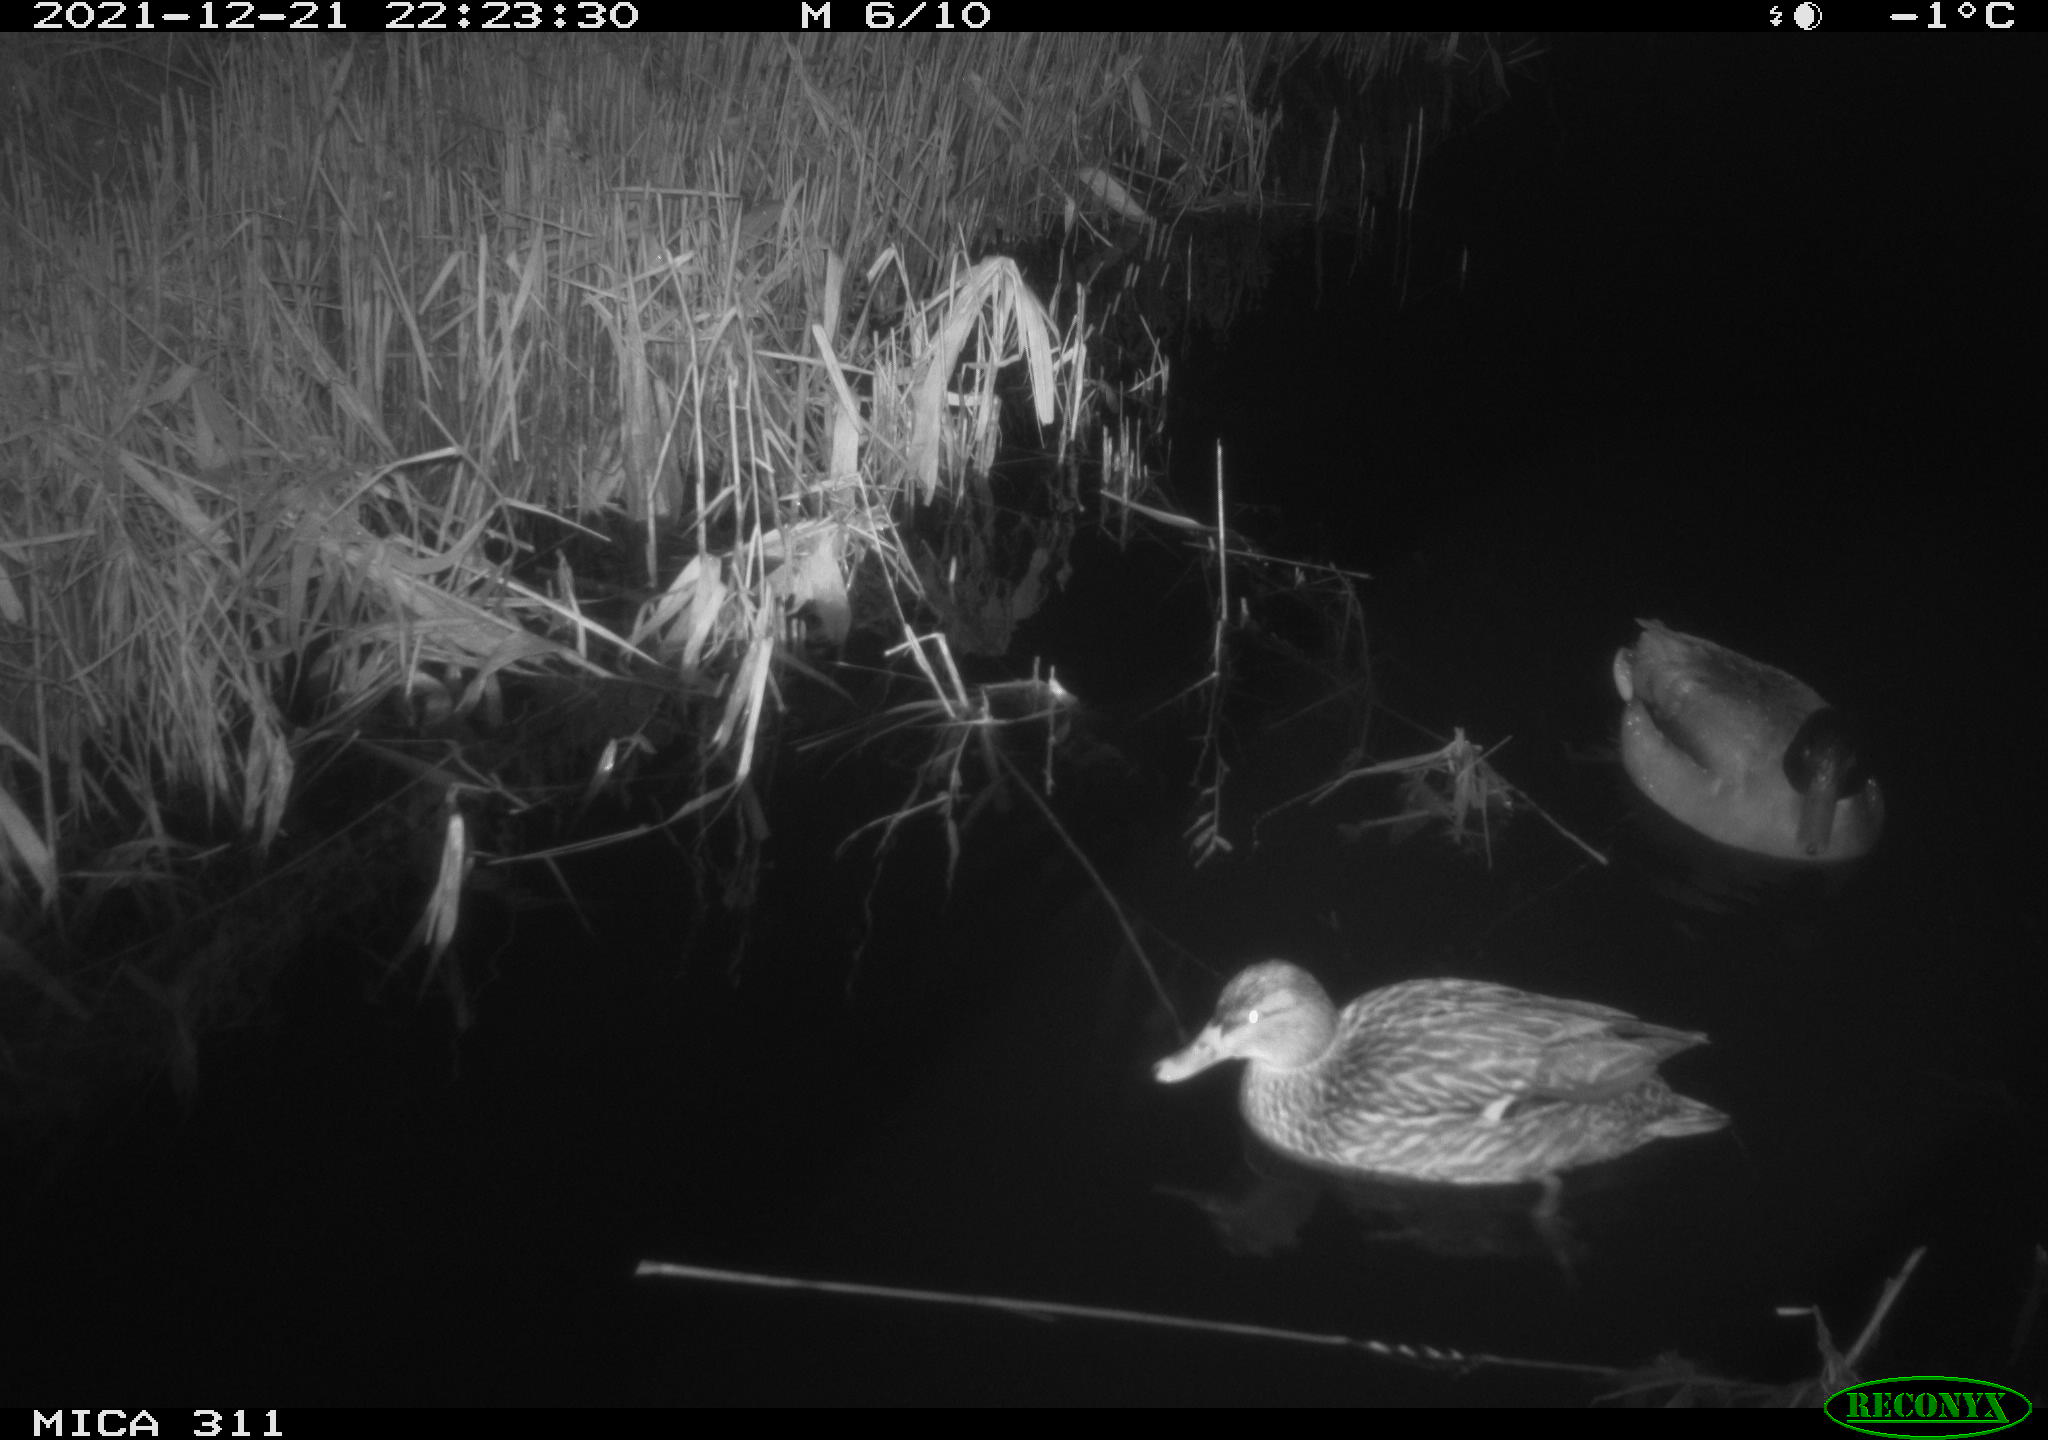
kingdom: Animalia
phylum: Chordata
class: Aves
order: Anseriformes
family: Anatidae
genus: Anas
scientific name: Anas platyrhynchos
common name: Mallard
